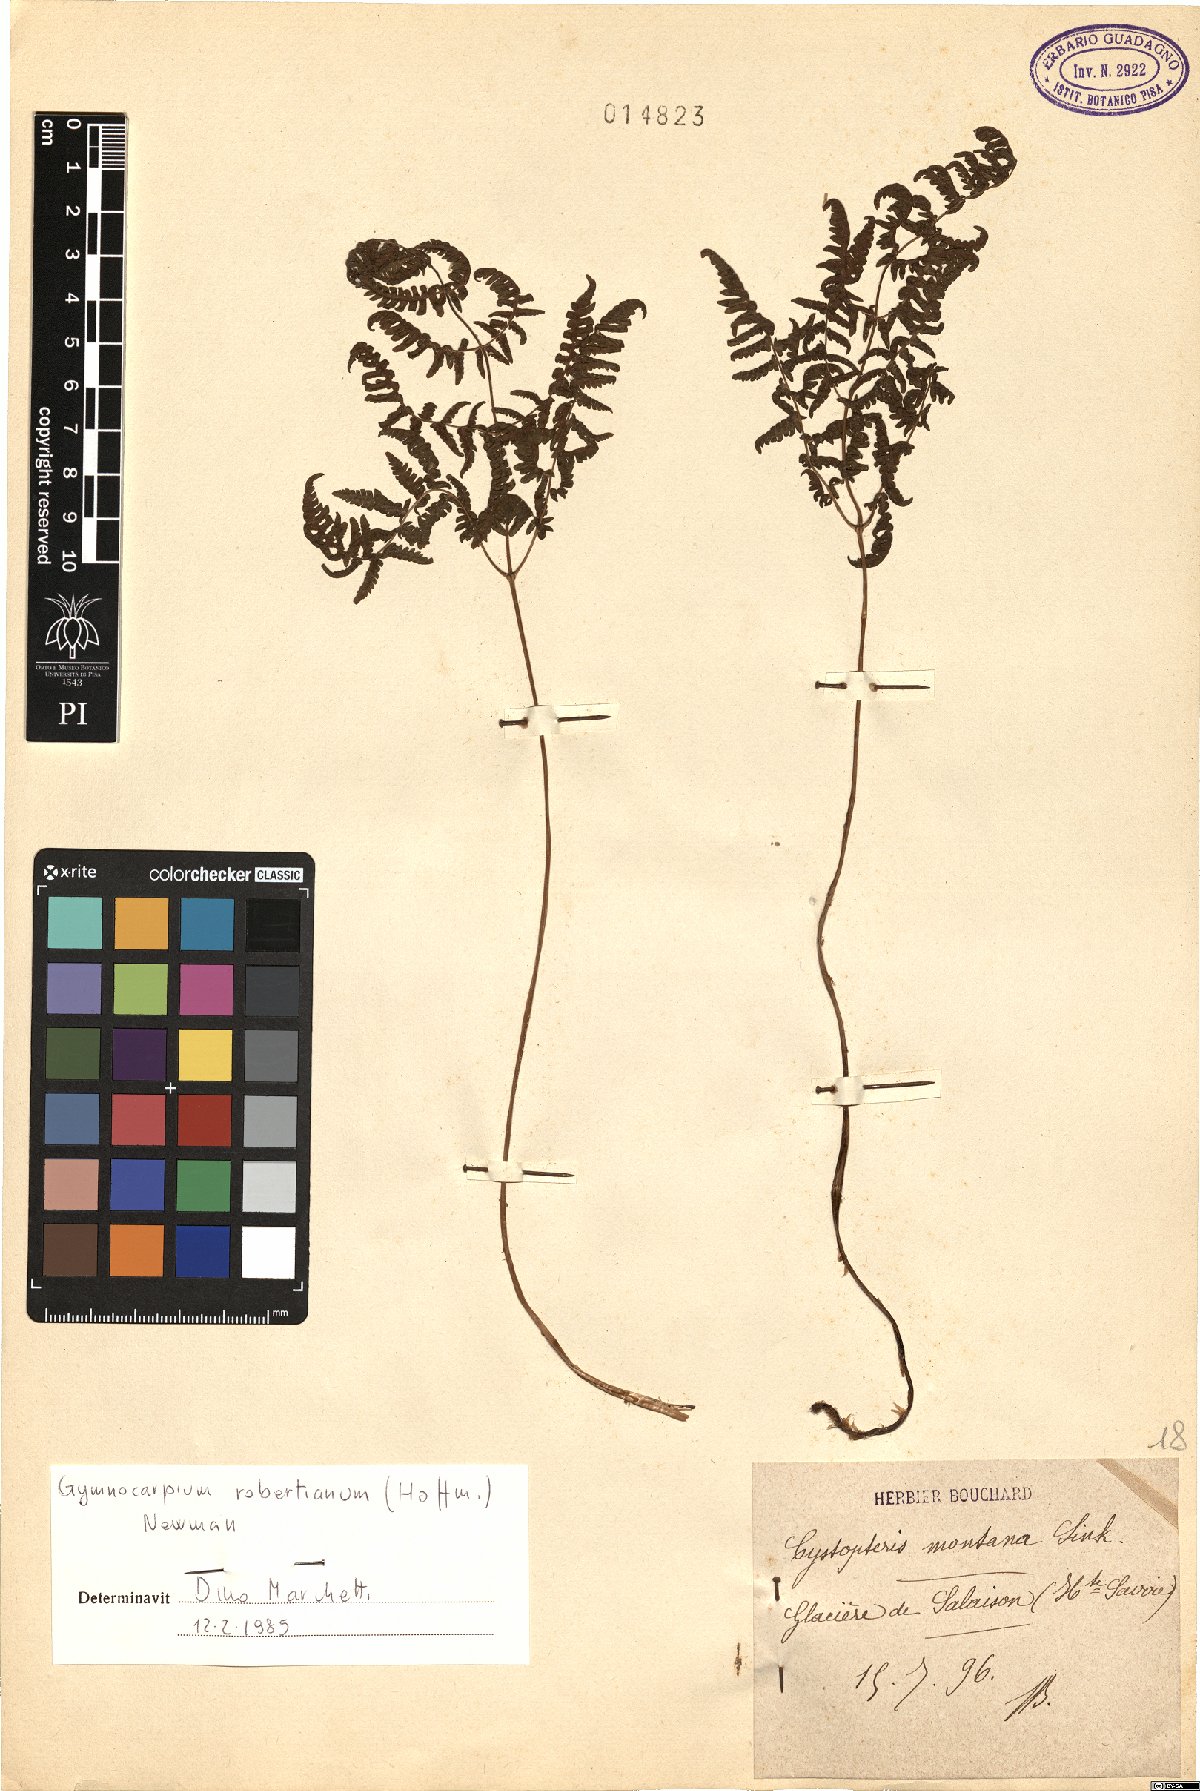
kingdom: Plantae
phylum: Tracheophyta
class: Polypodiopsida
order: Polypodiales
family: Cystopteridaceae
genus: Gymnocarpium
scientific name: Gymnocarpium robertianum
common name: Limestone fern
